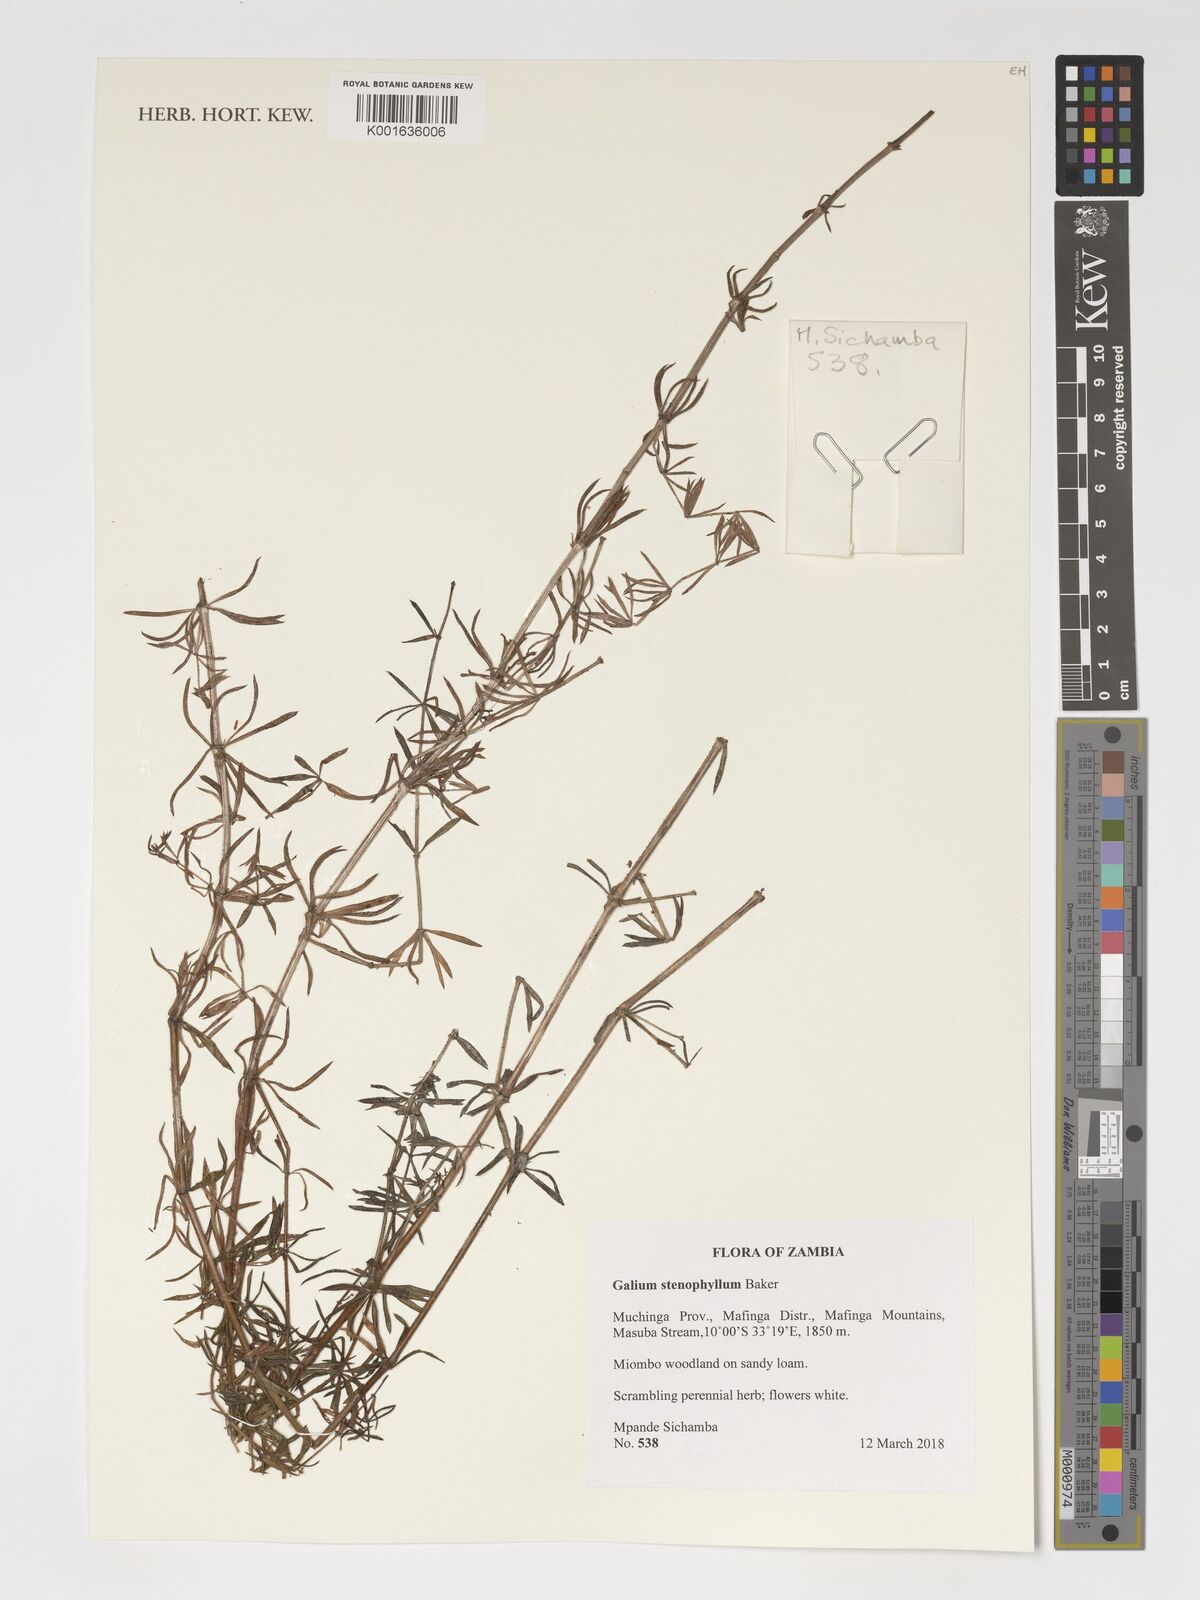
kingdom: Plantae
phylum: Tracheophyta
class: Magnoliopsida
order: Gentianales
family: Rubiaceae
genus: Galium
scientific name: Galium stenophyllum
